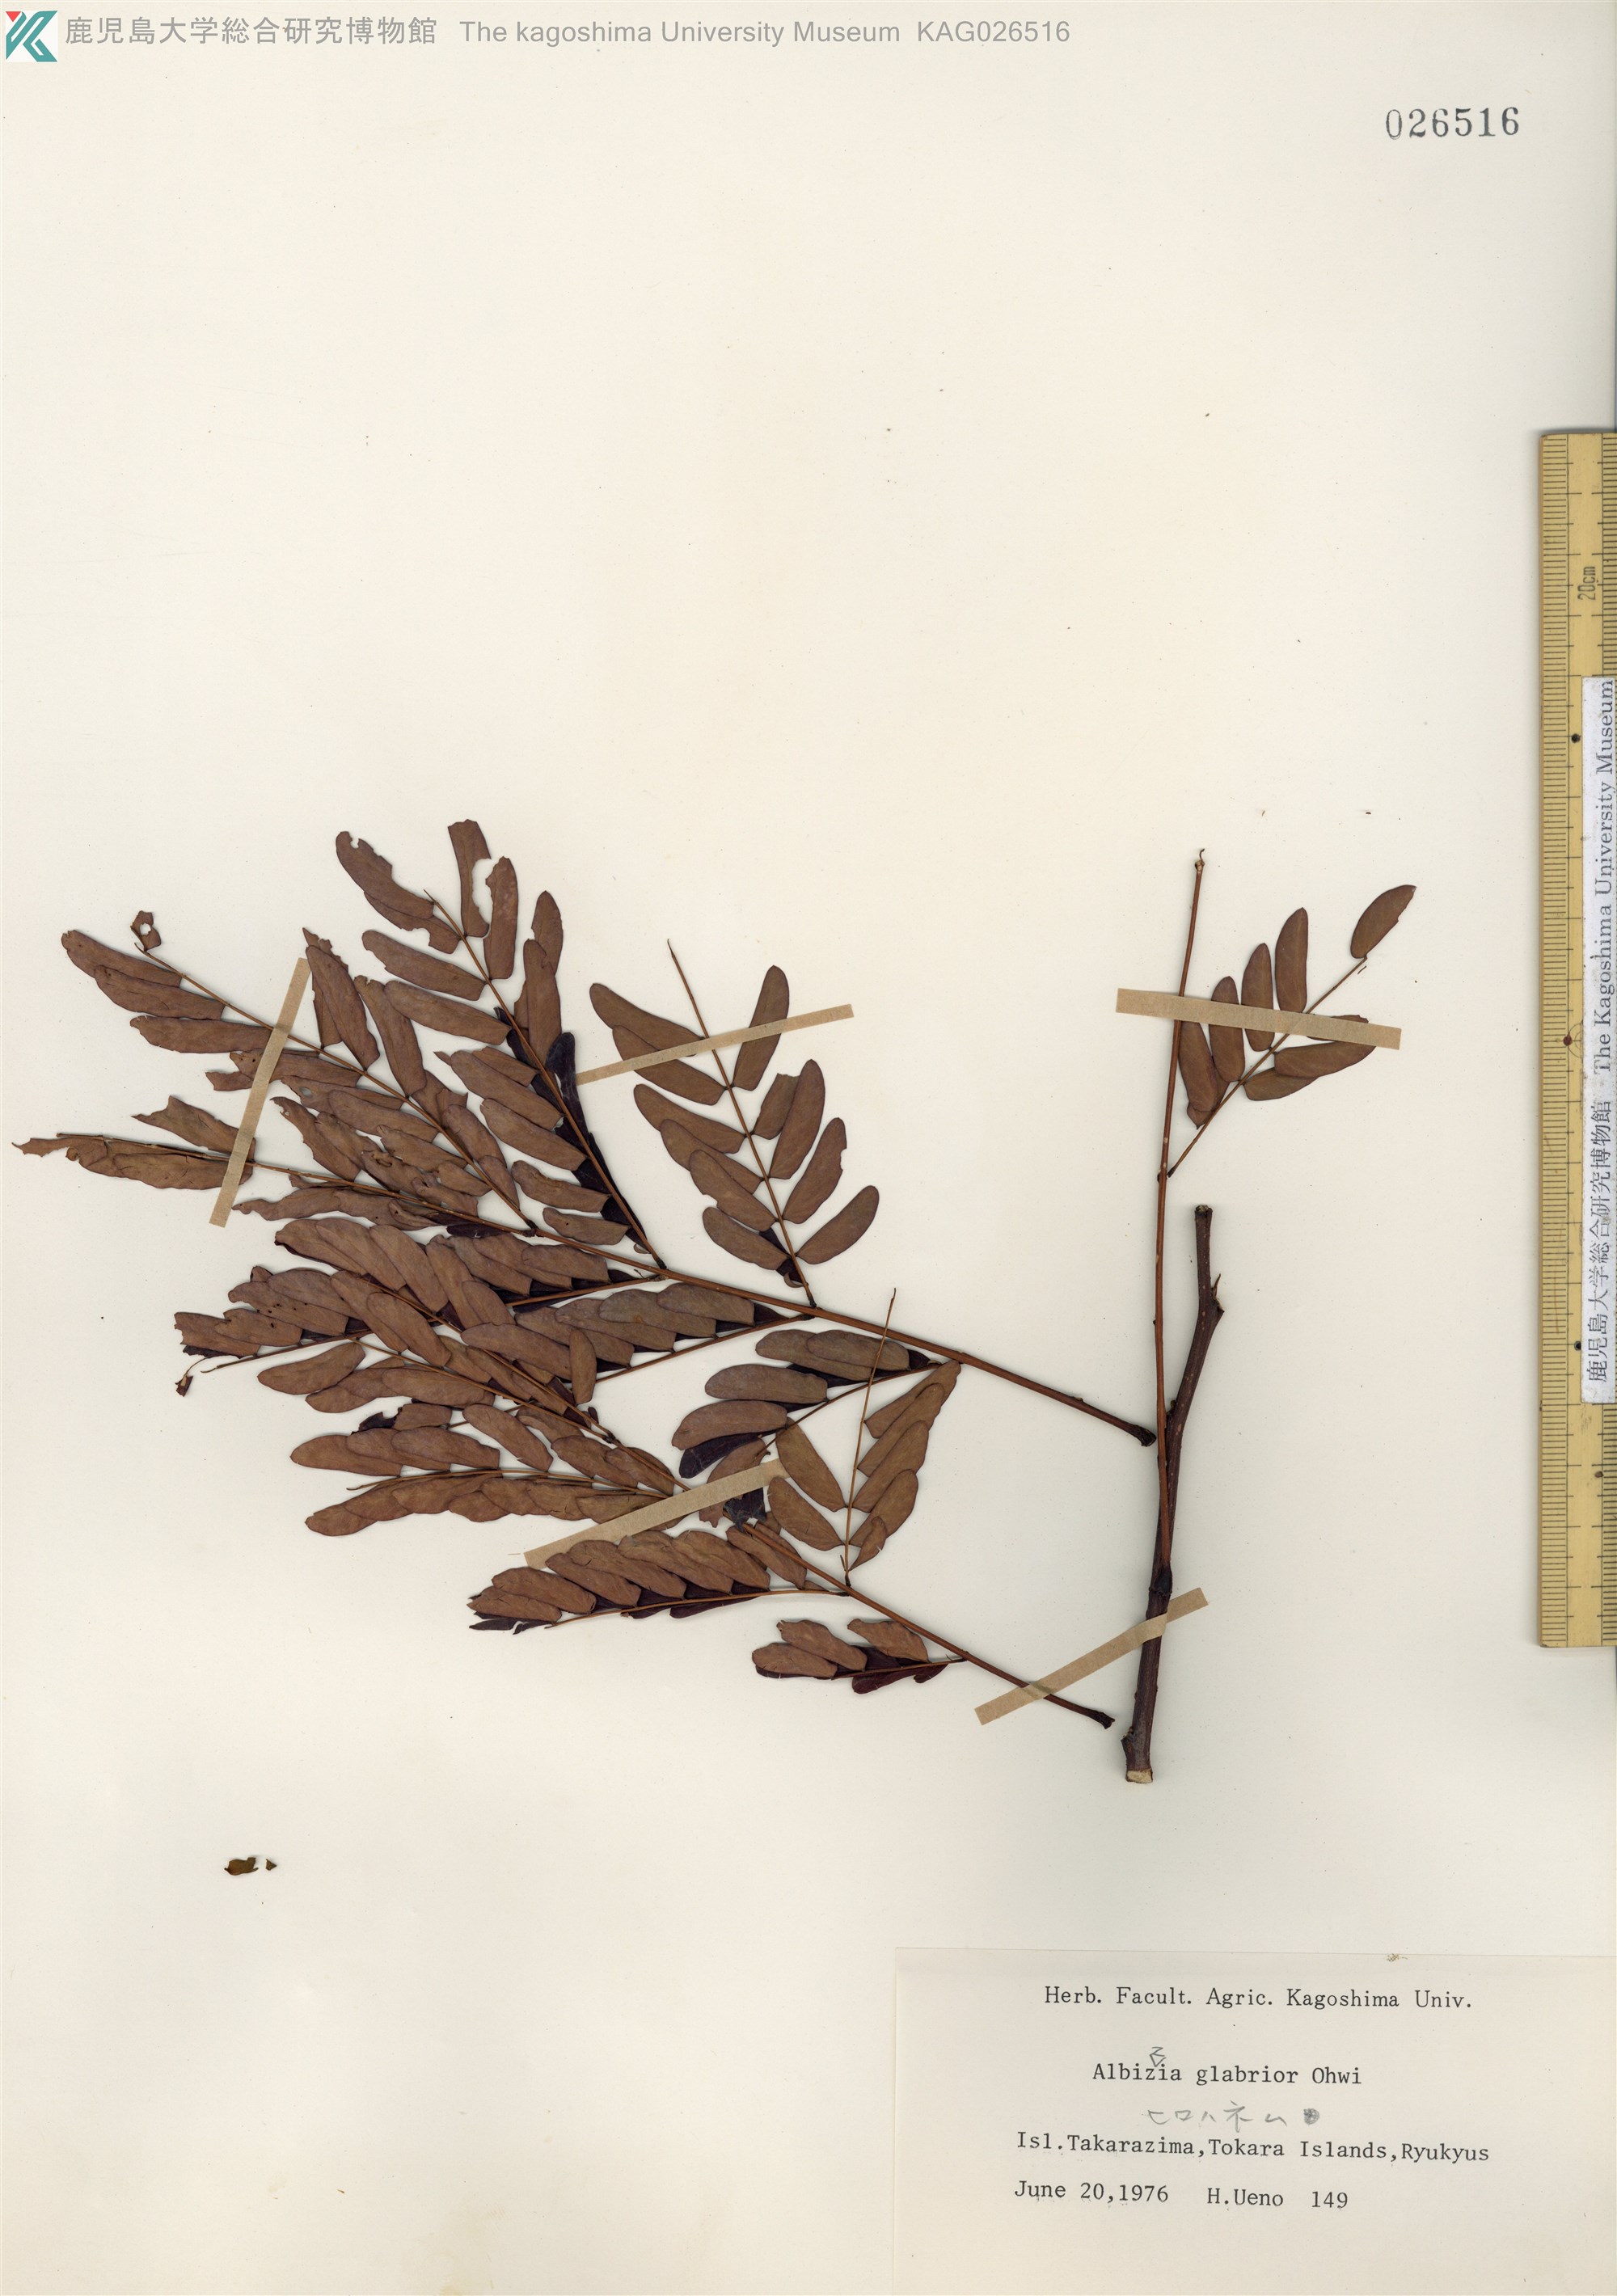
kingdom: Plantae
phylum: Tracheophyta
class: Magnoliopsida
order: Fabales
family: Fabaceae
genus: Albizia
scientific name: Albizia kalkora
